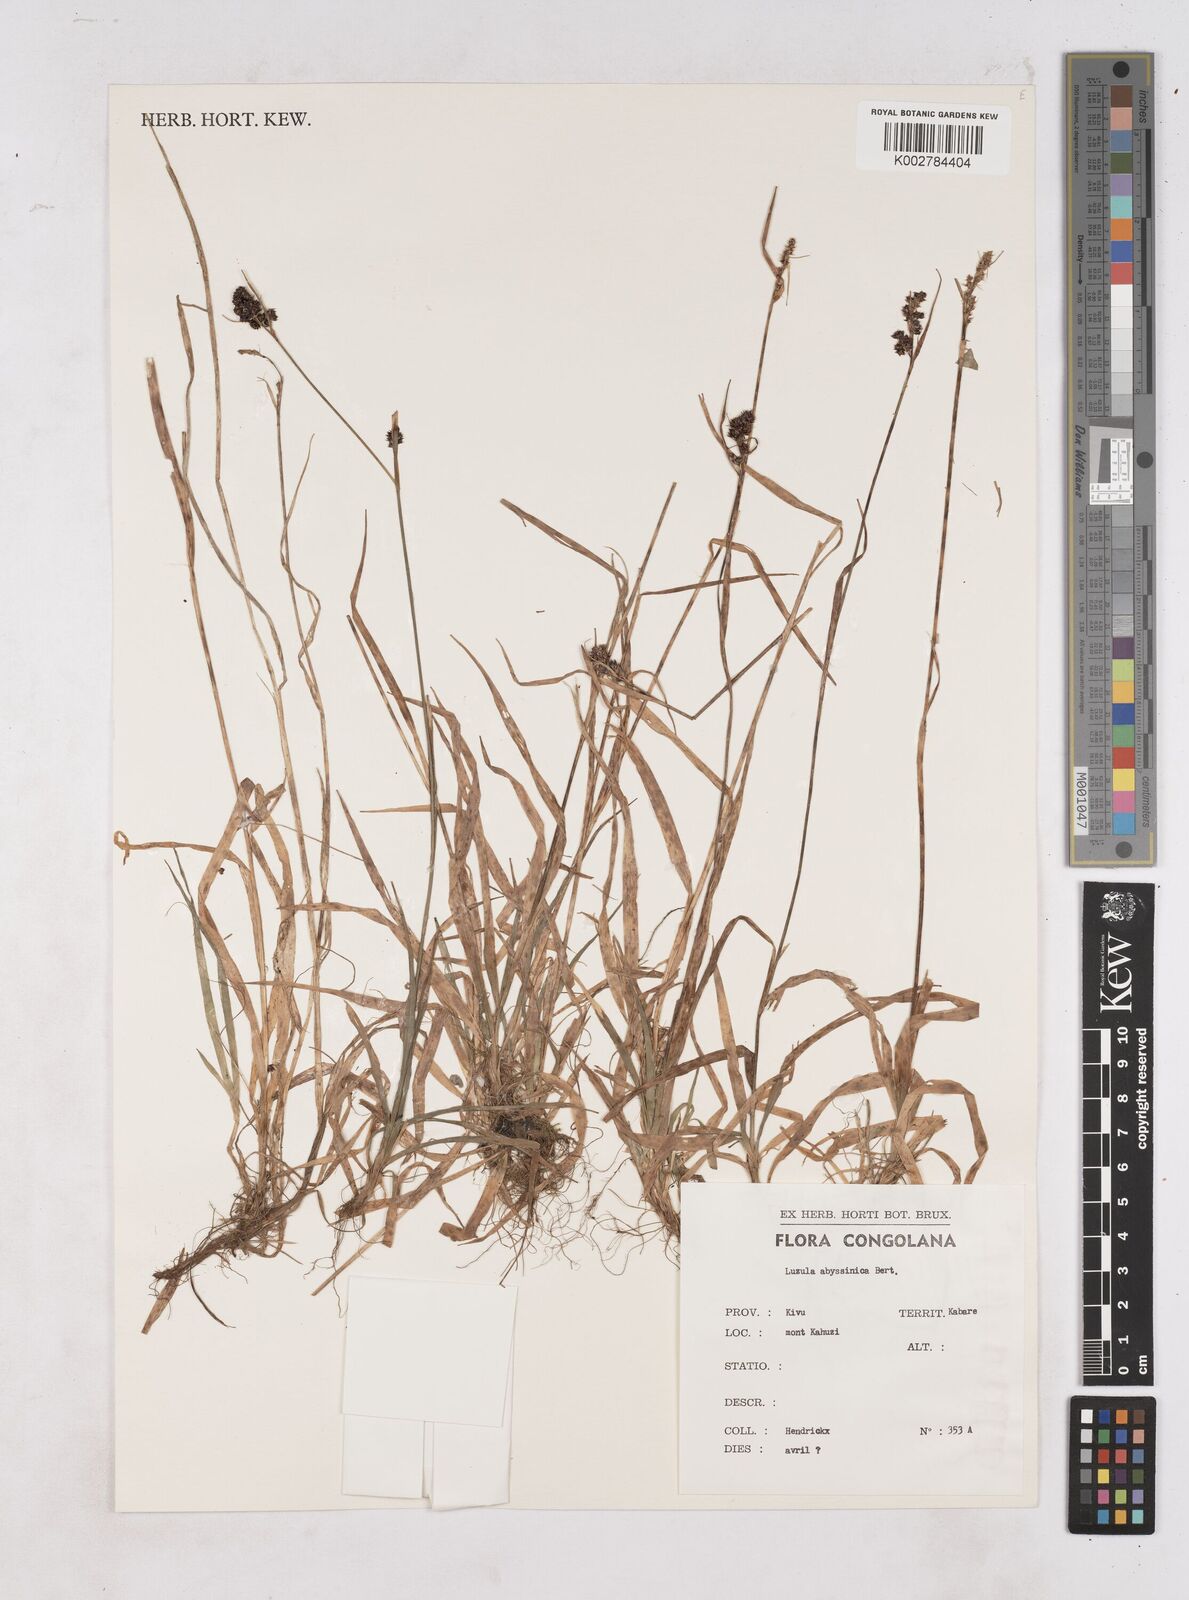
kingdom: Plantae
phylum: Tracheophyta
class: Liliopsida
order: Poales
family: Juncaceae
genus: Luzula
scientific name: Luzula abyssinica
